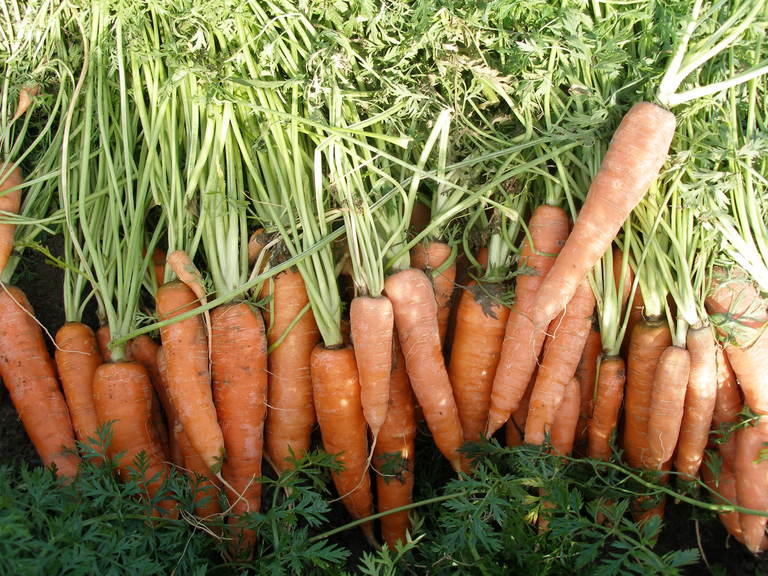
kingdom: Plantae
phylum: Tracheophyta
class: Magnoliopsida
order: Apiales
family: Apiaceae
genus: Daucus
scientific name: Daucus carota
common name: Wild carrot
